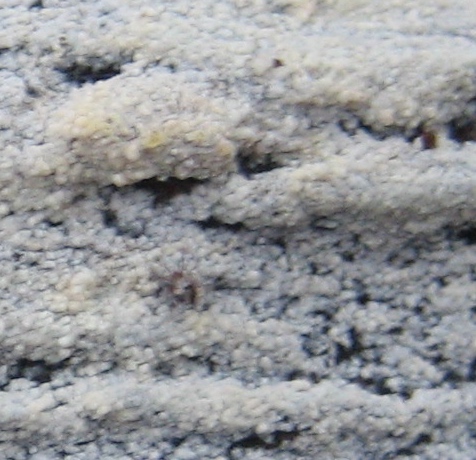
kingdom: Fungi
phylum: Basidiomycota
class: Agaricomycetes
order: Corticiales
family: Corticiaceae
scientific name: Corticiaceae
